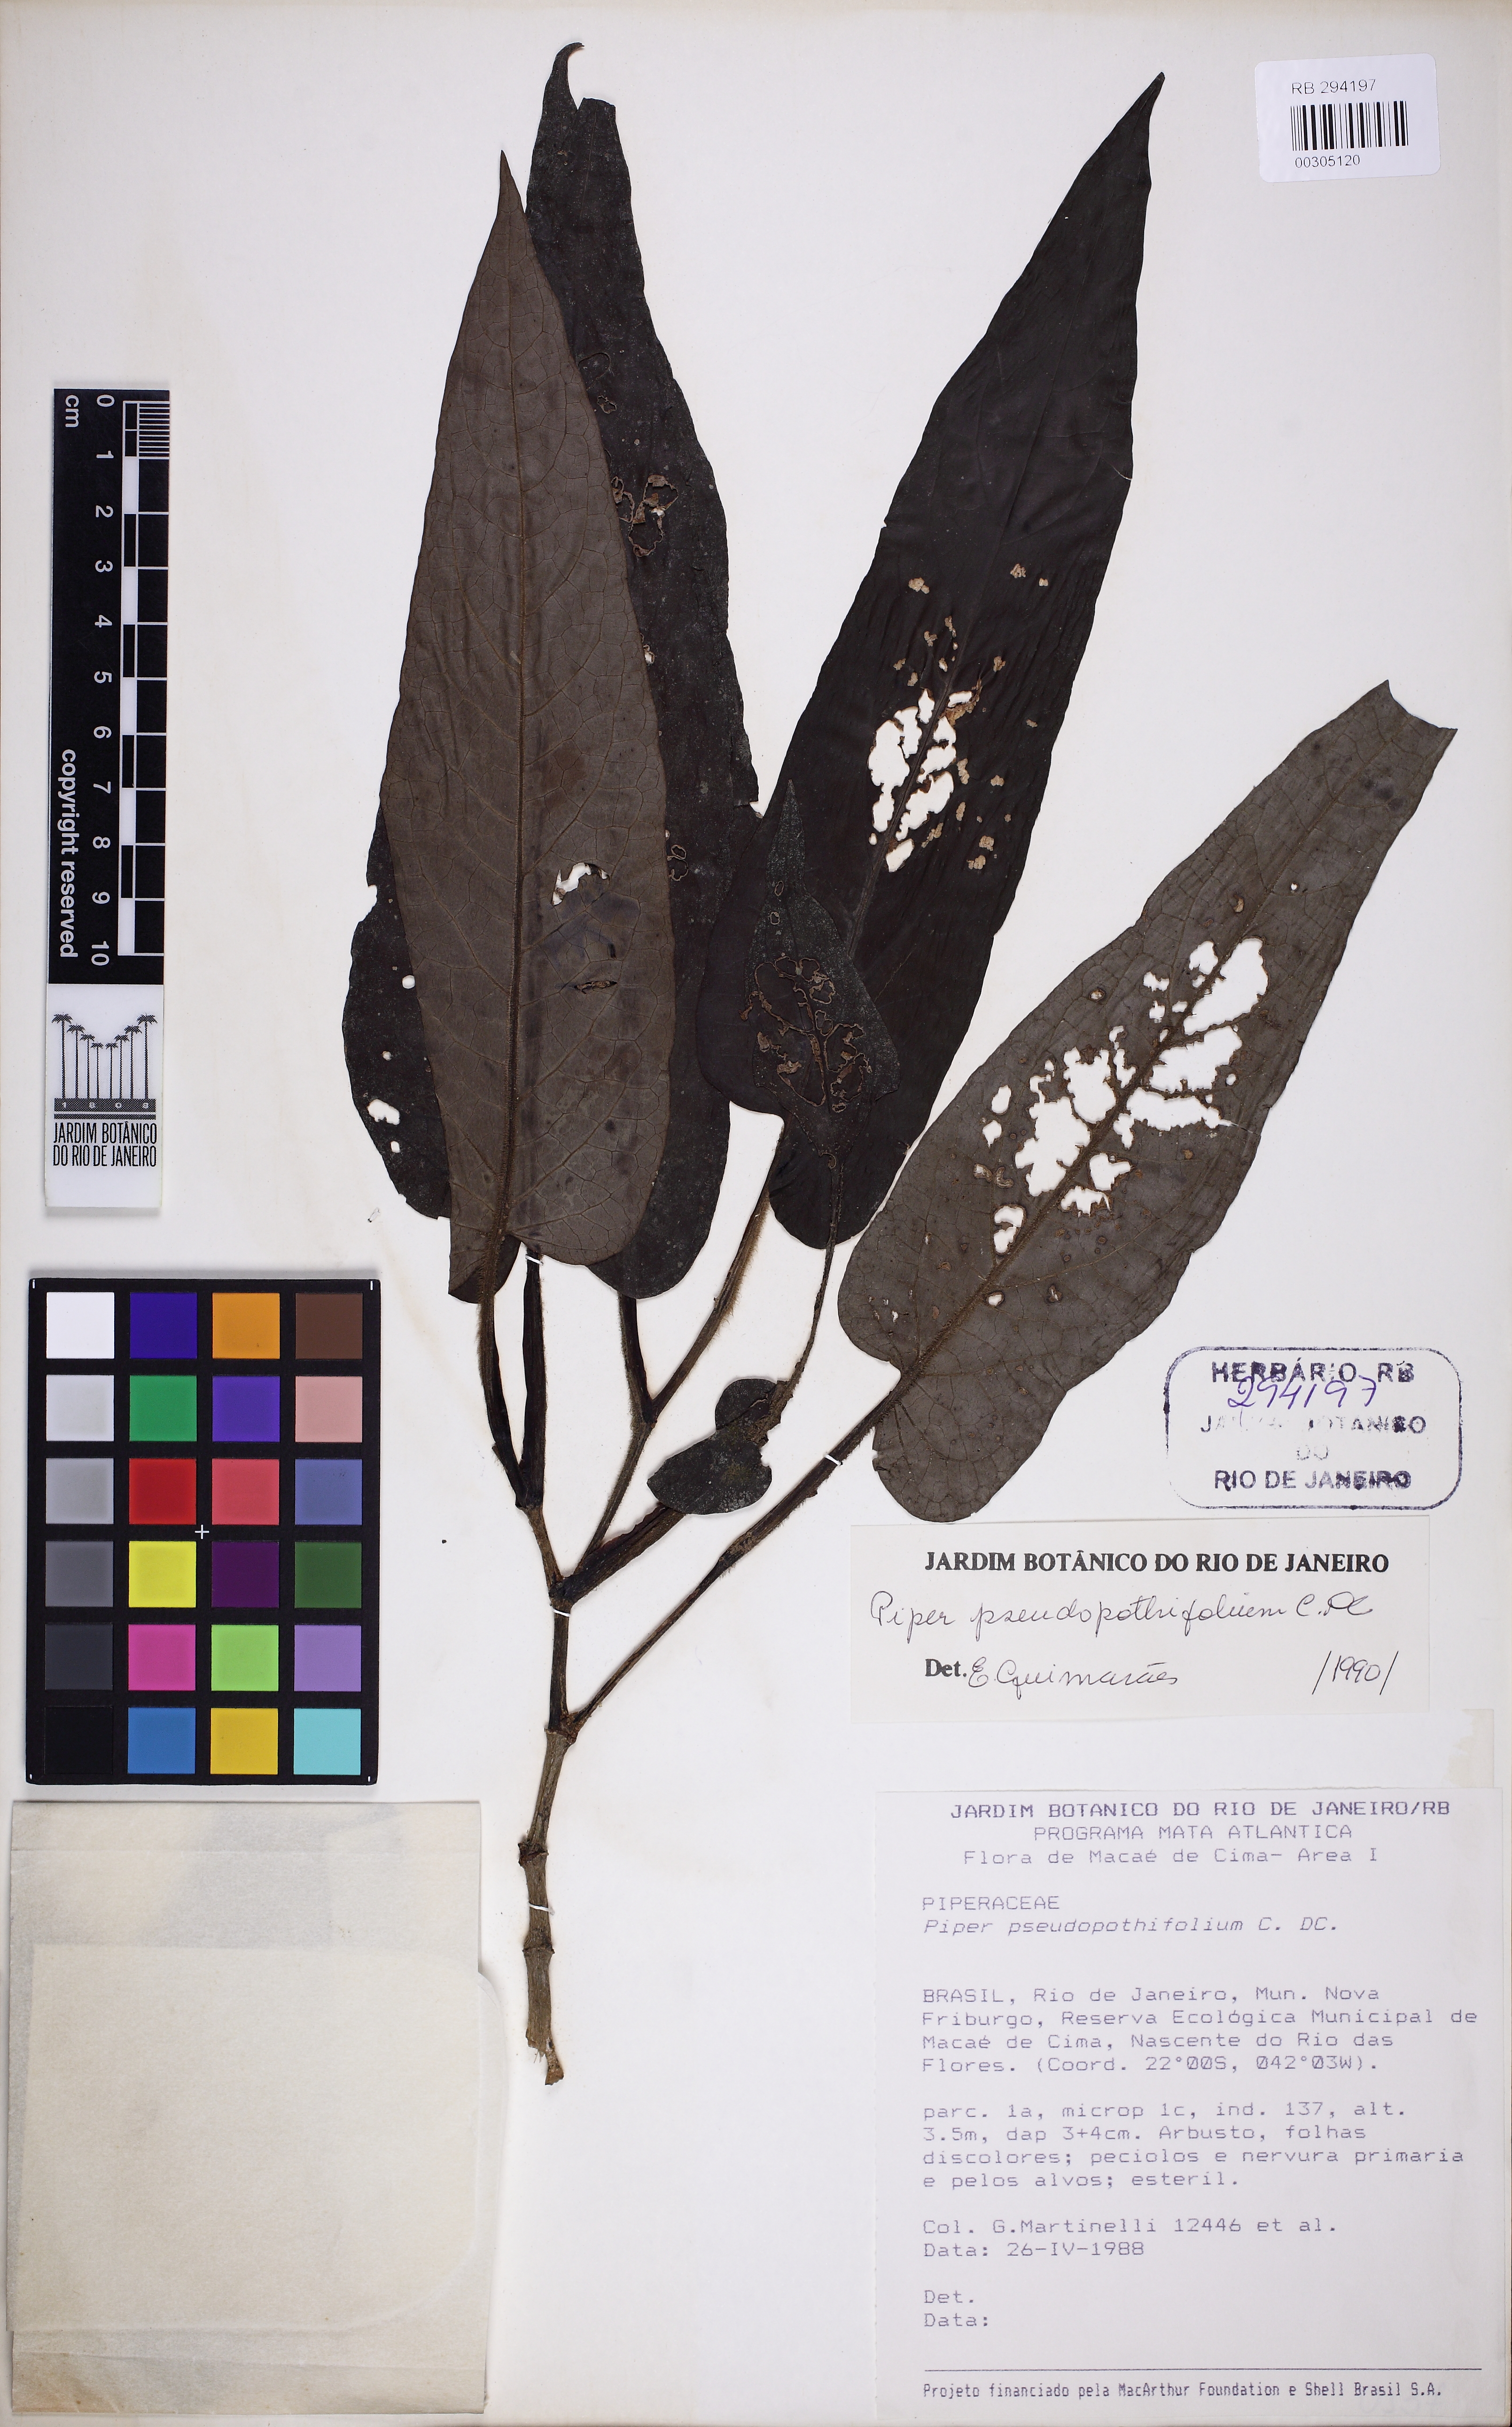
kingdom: Plantae
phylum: Tracheophyta
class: Magnoliopsida
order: Piperales
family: Piperaceae
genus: Piper
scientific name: Piper pseudopothifolium
